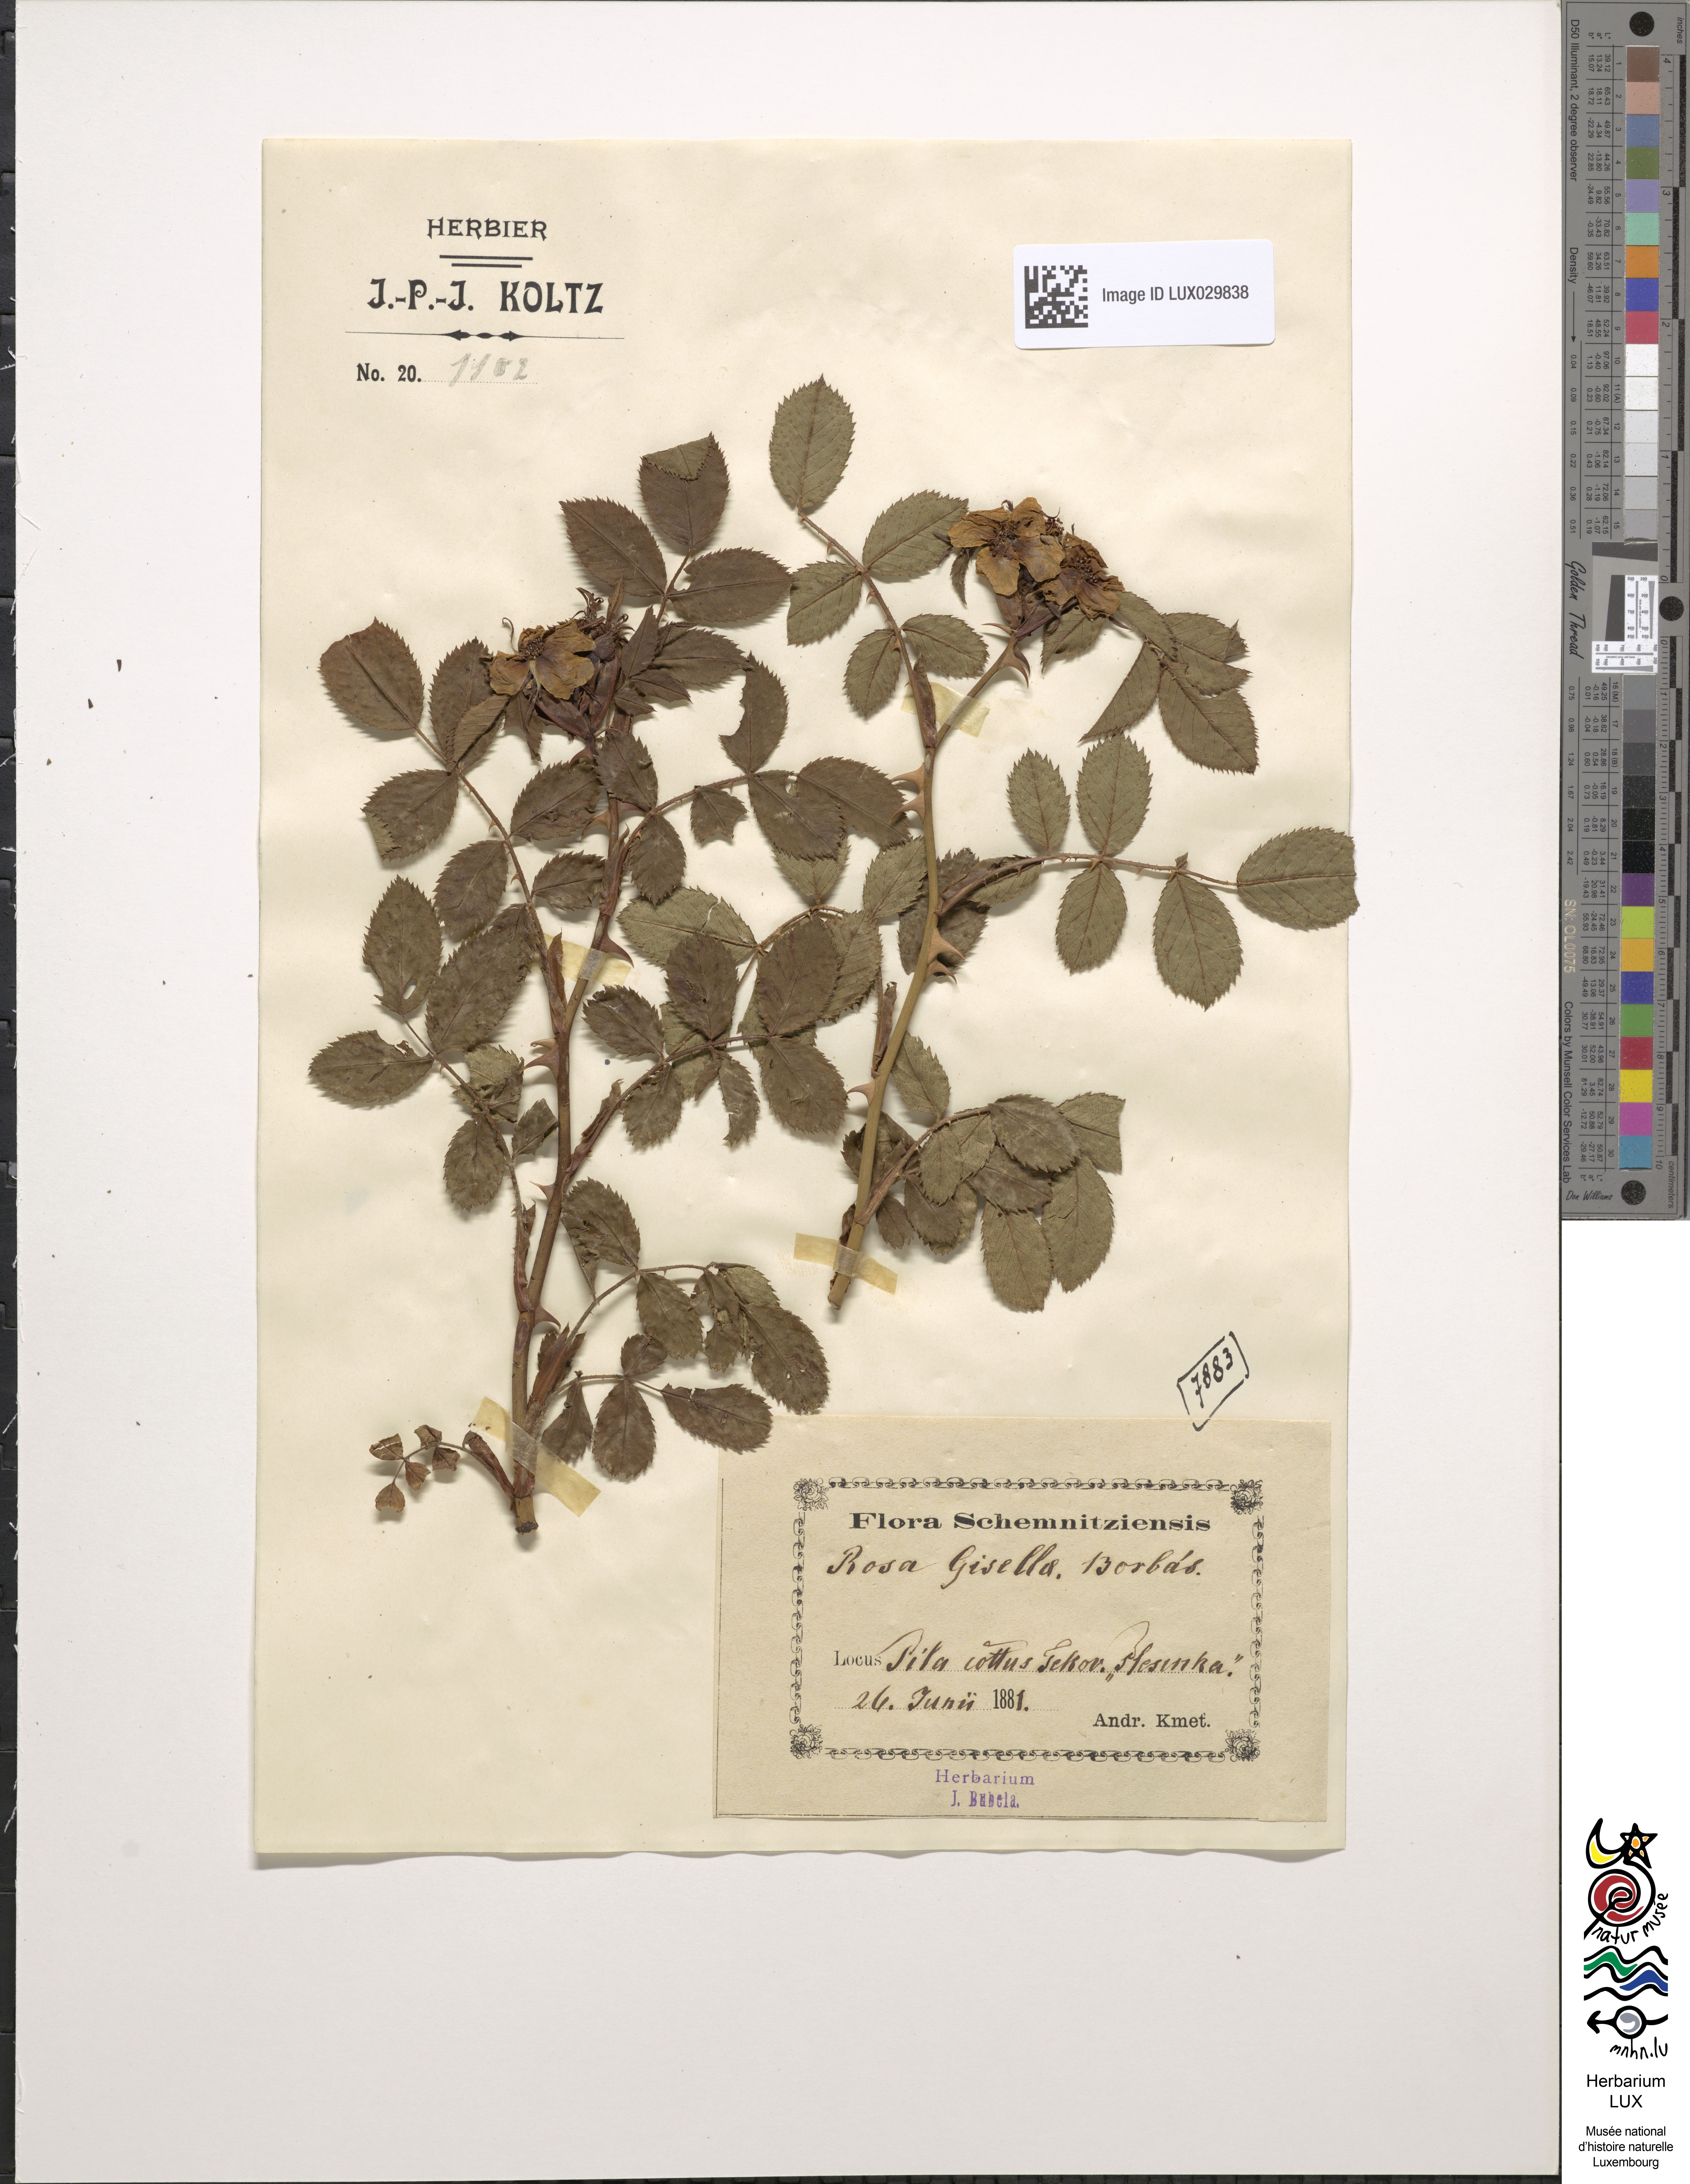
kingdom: Plantae
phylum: Tracheophyta
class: Magnoliopsida
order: Rosales
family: Rosaceae
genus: Rosa
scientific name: Rosa agrestis
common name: Fieldbriar
